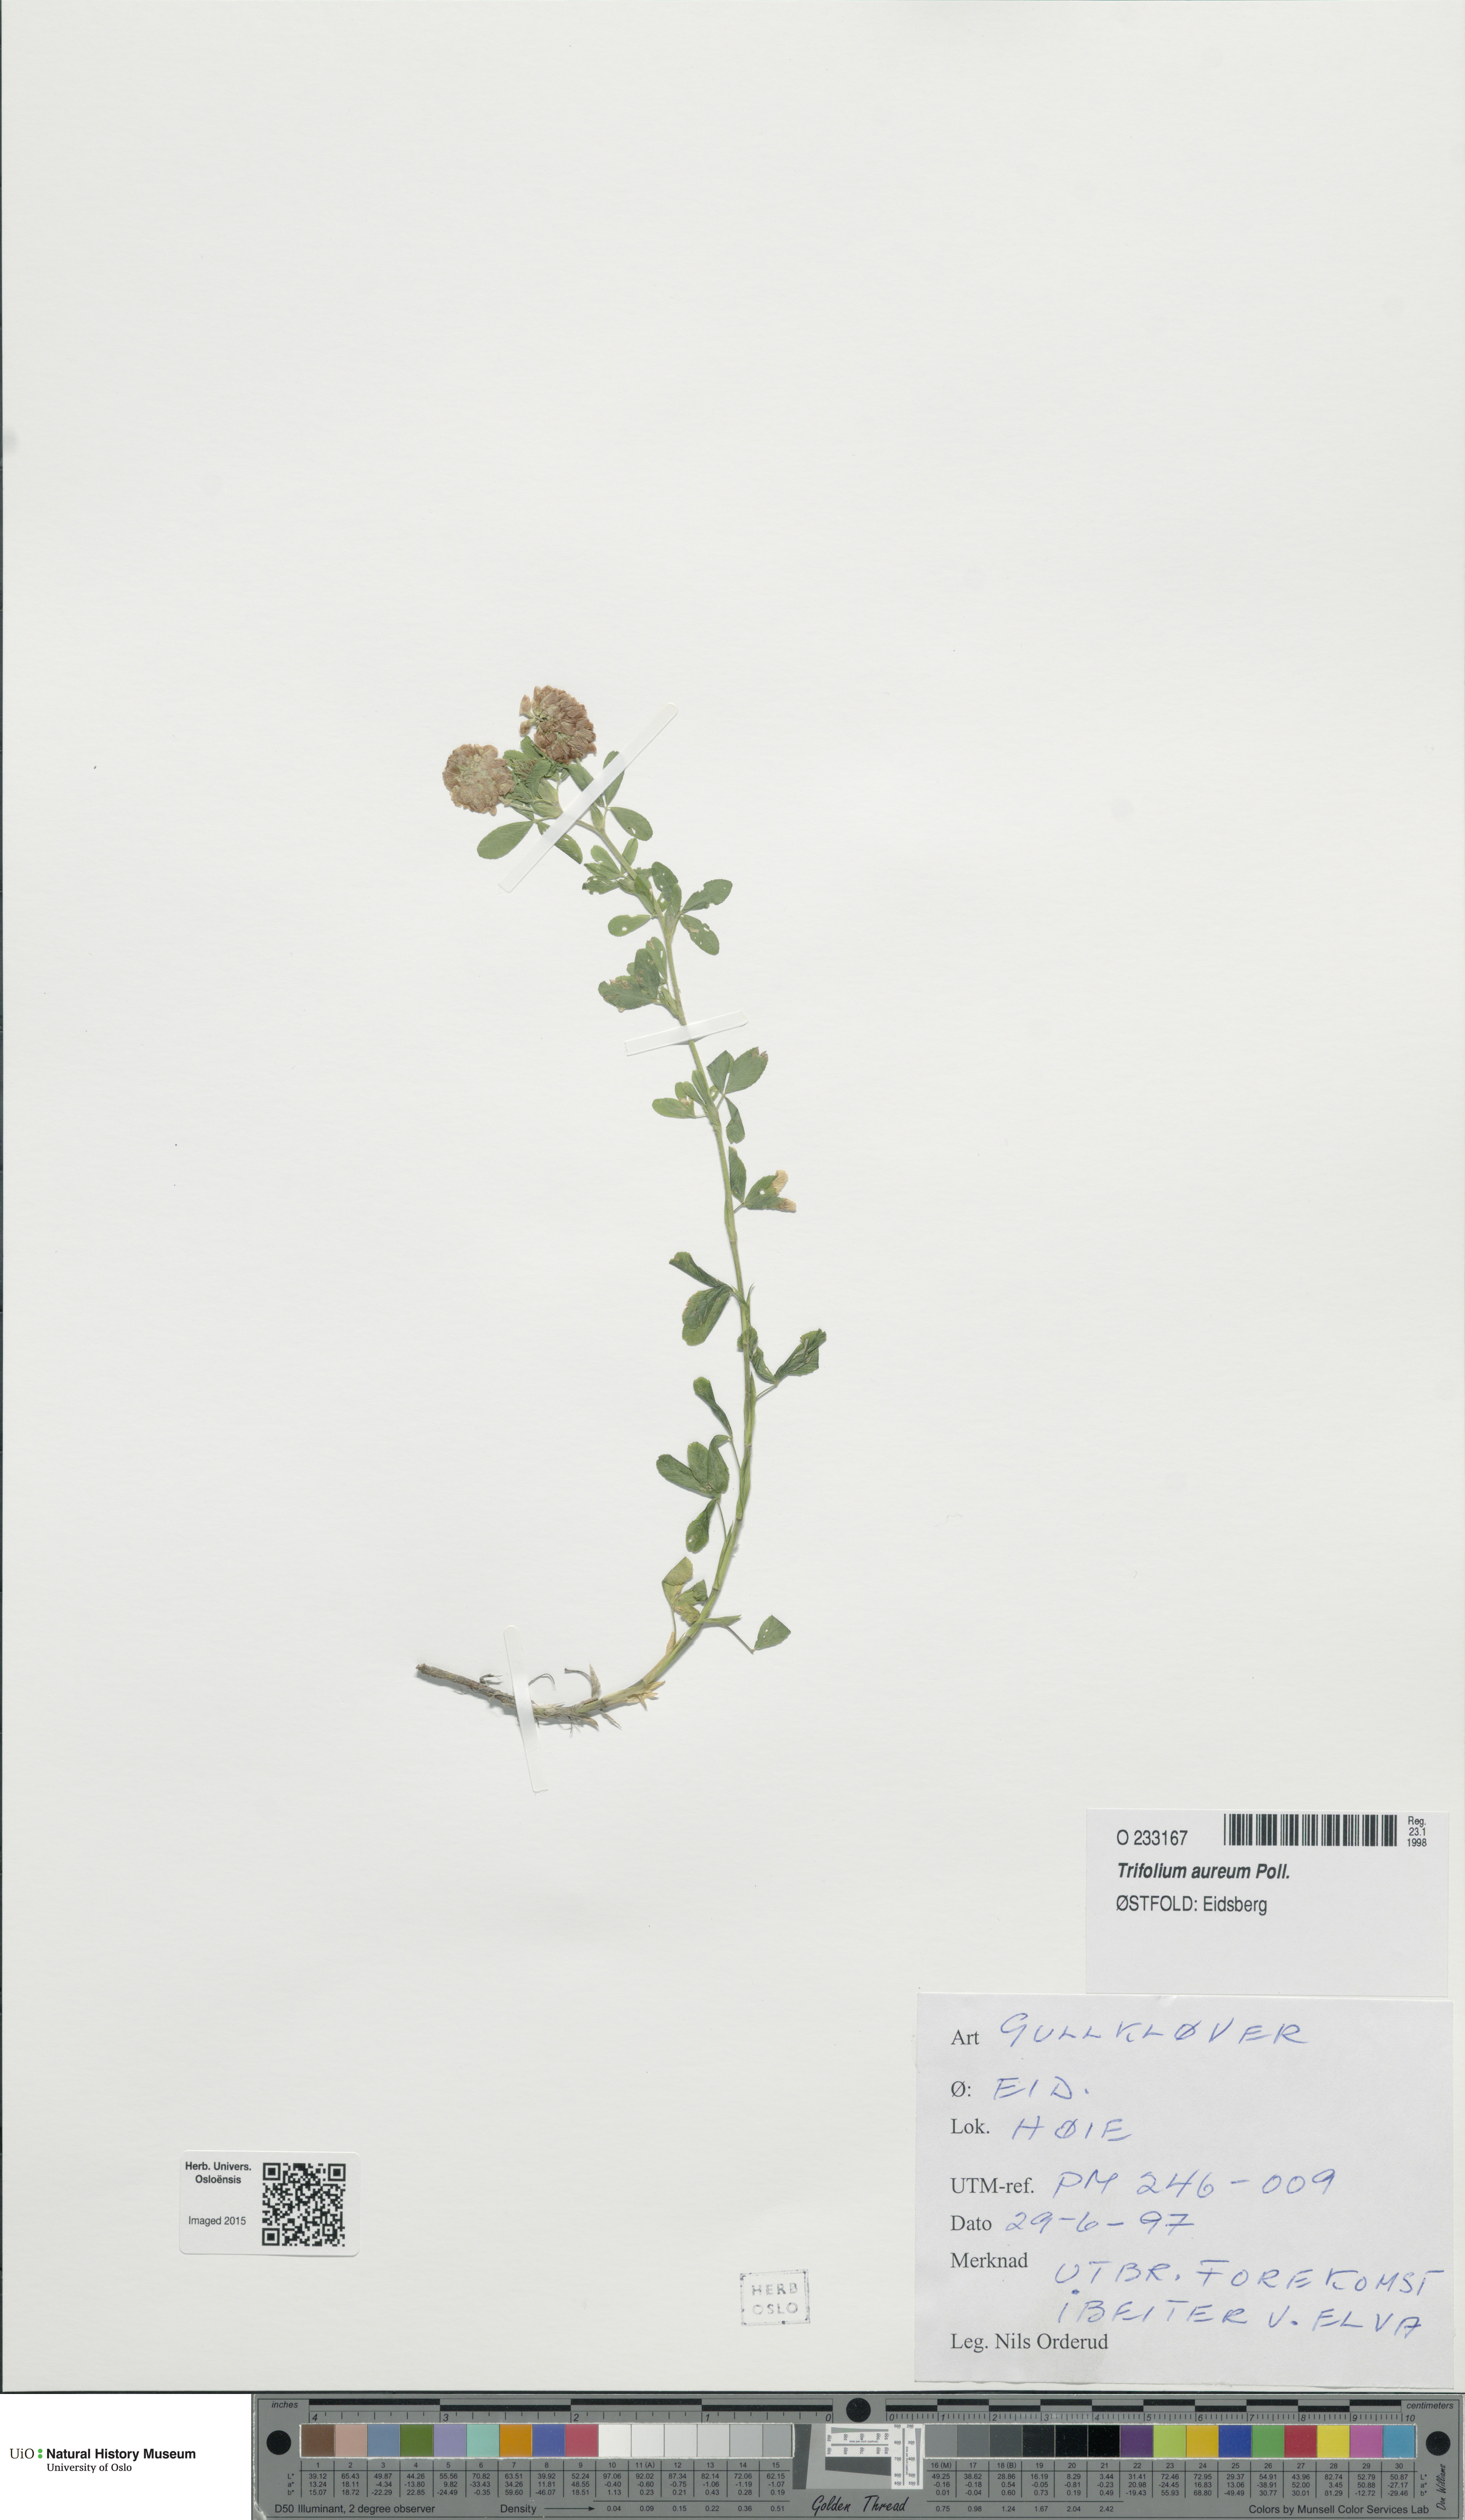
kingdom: Plantae
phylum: Tracheophyta
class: Magnoliopsida
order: Fabales
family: Fabaceae
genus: Trifolium
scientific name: Trifolium aureum
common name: Golden clover
